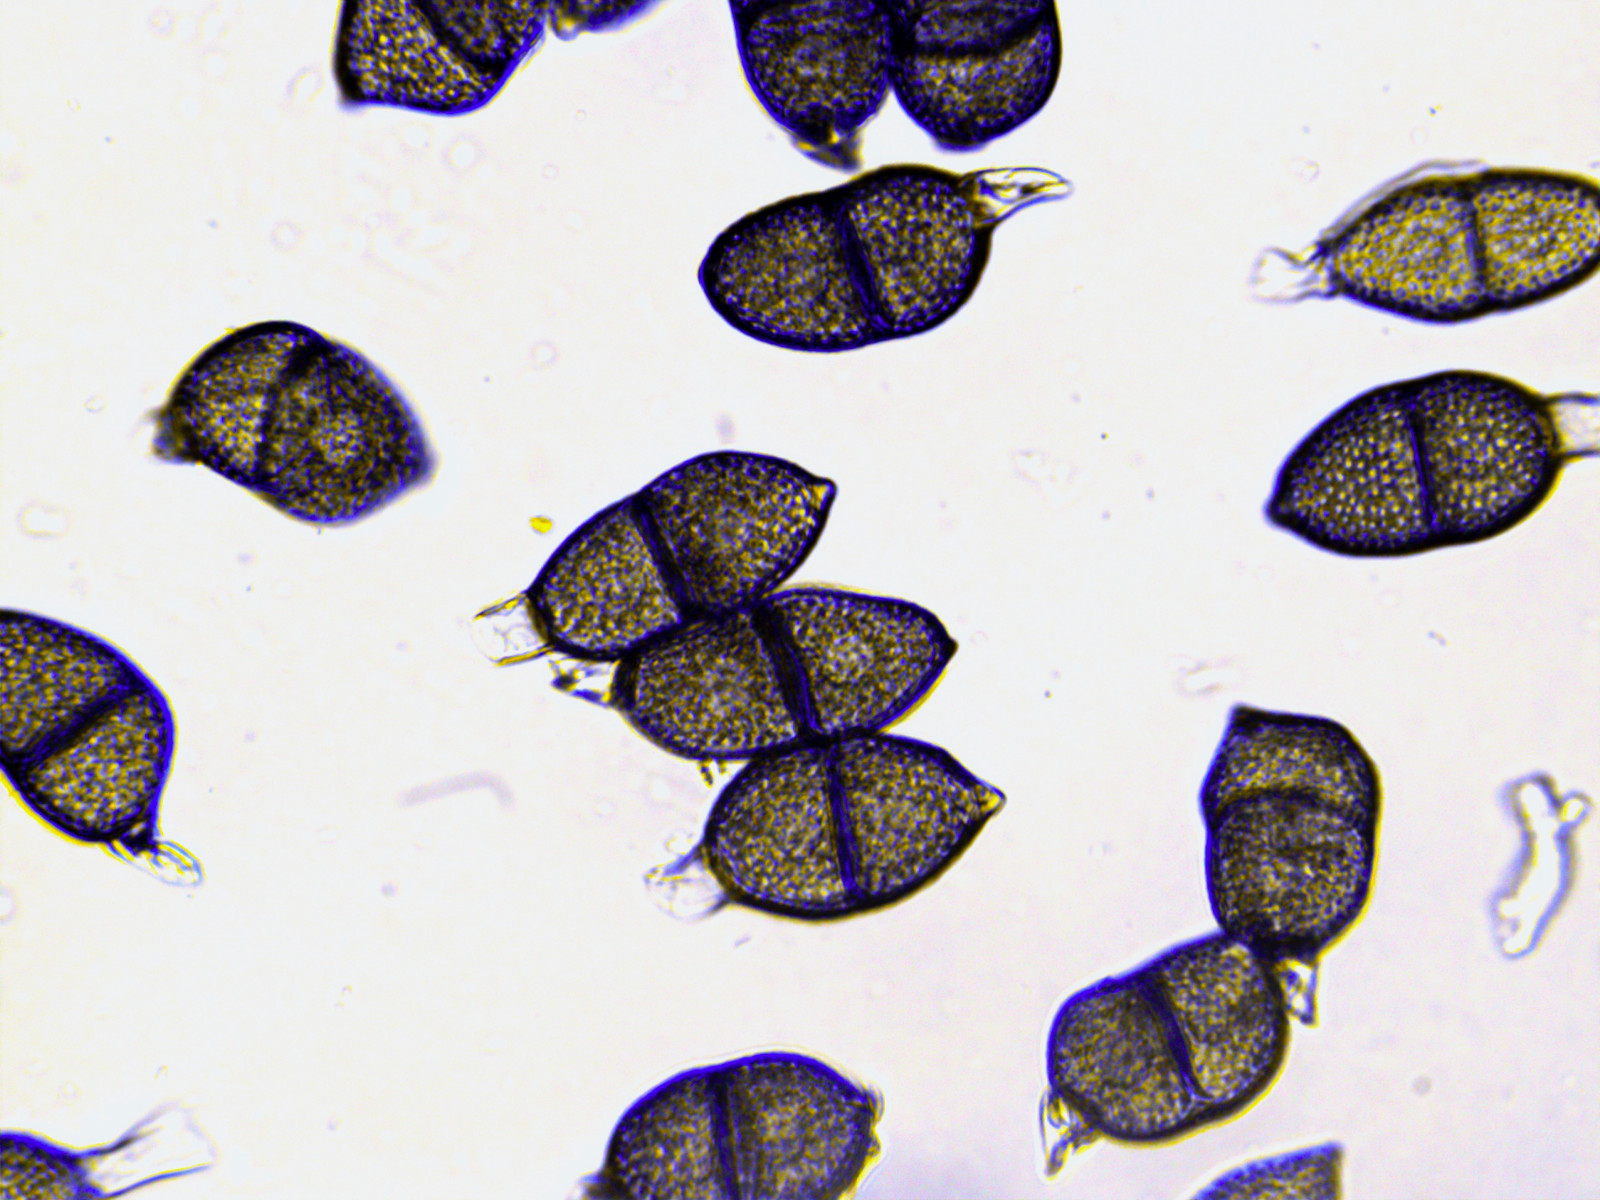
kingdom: Fungi
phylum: Basidiomycota
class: Pucciniomycetes
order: Pucciniales
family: Pucciniaceae
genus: Puccinia
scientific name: Puccinia scillae
